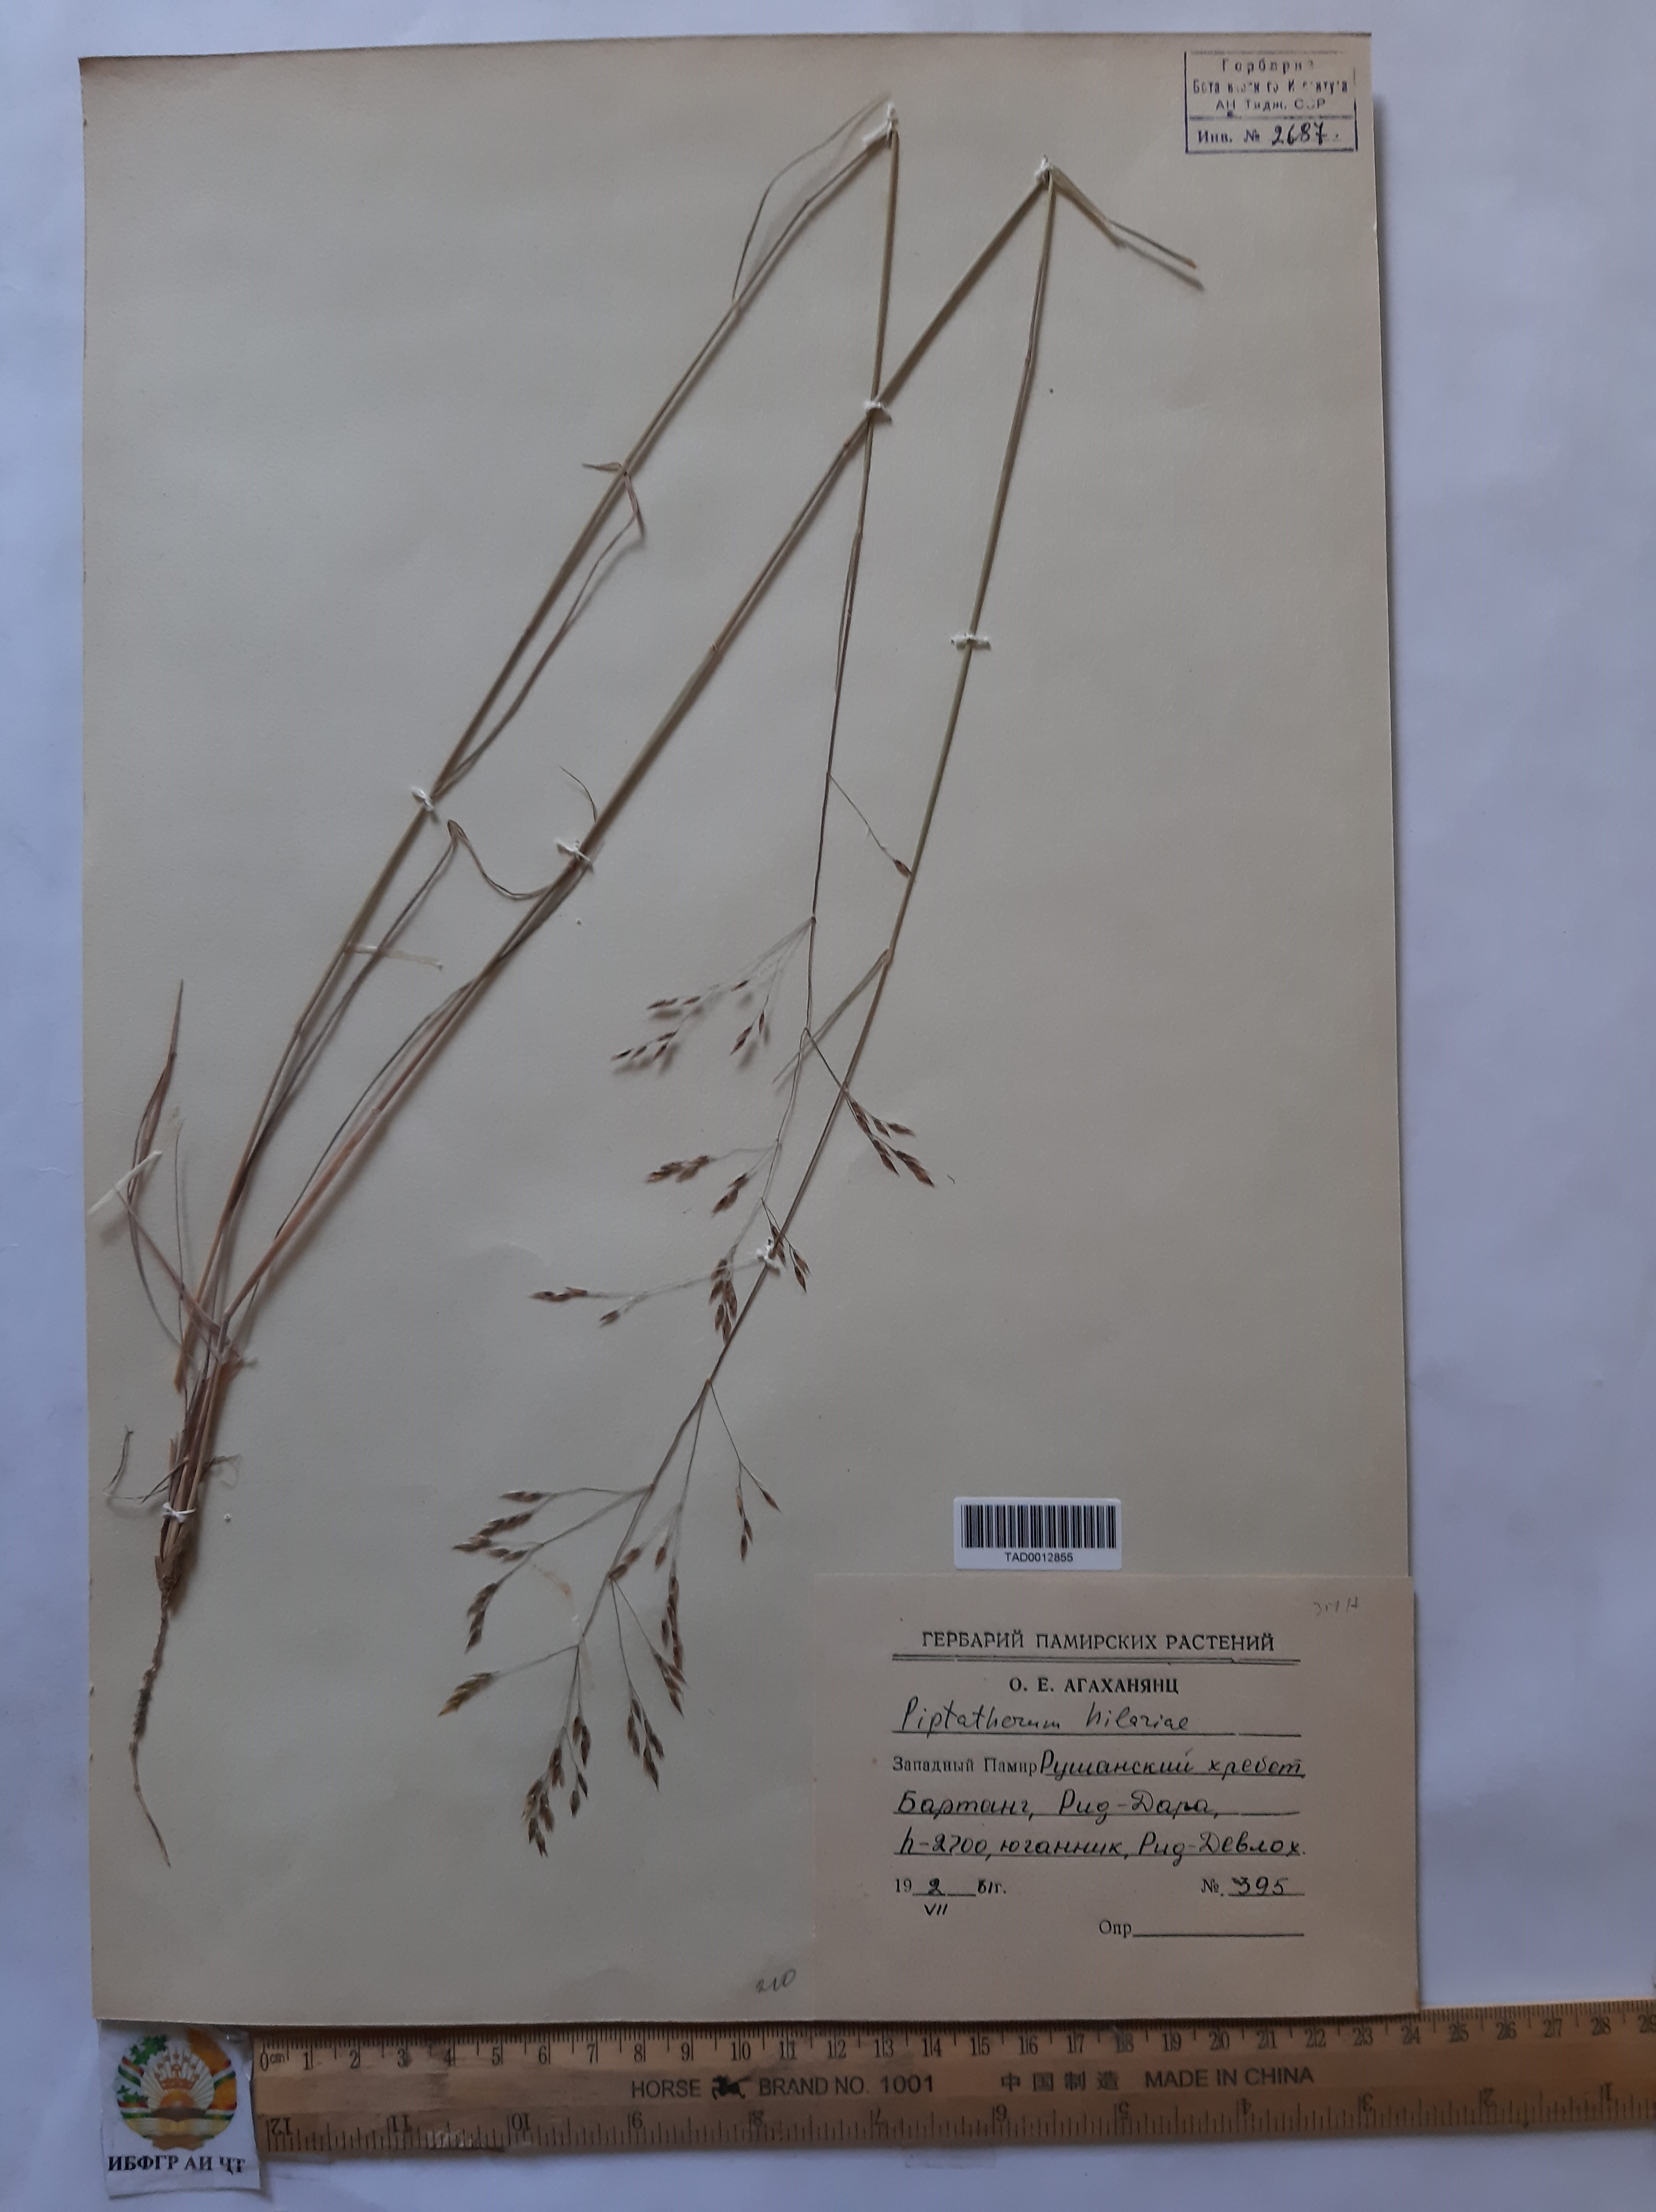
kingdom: Plantae
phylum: Tracheophyta
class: Liliopsida
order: Poales
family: Poaceae
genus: Piptatherum
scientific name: Piptatherum hilariae
